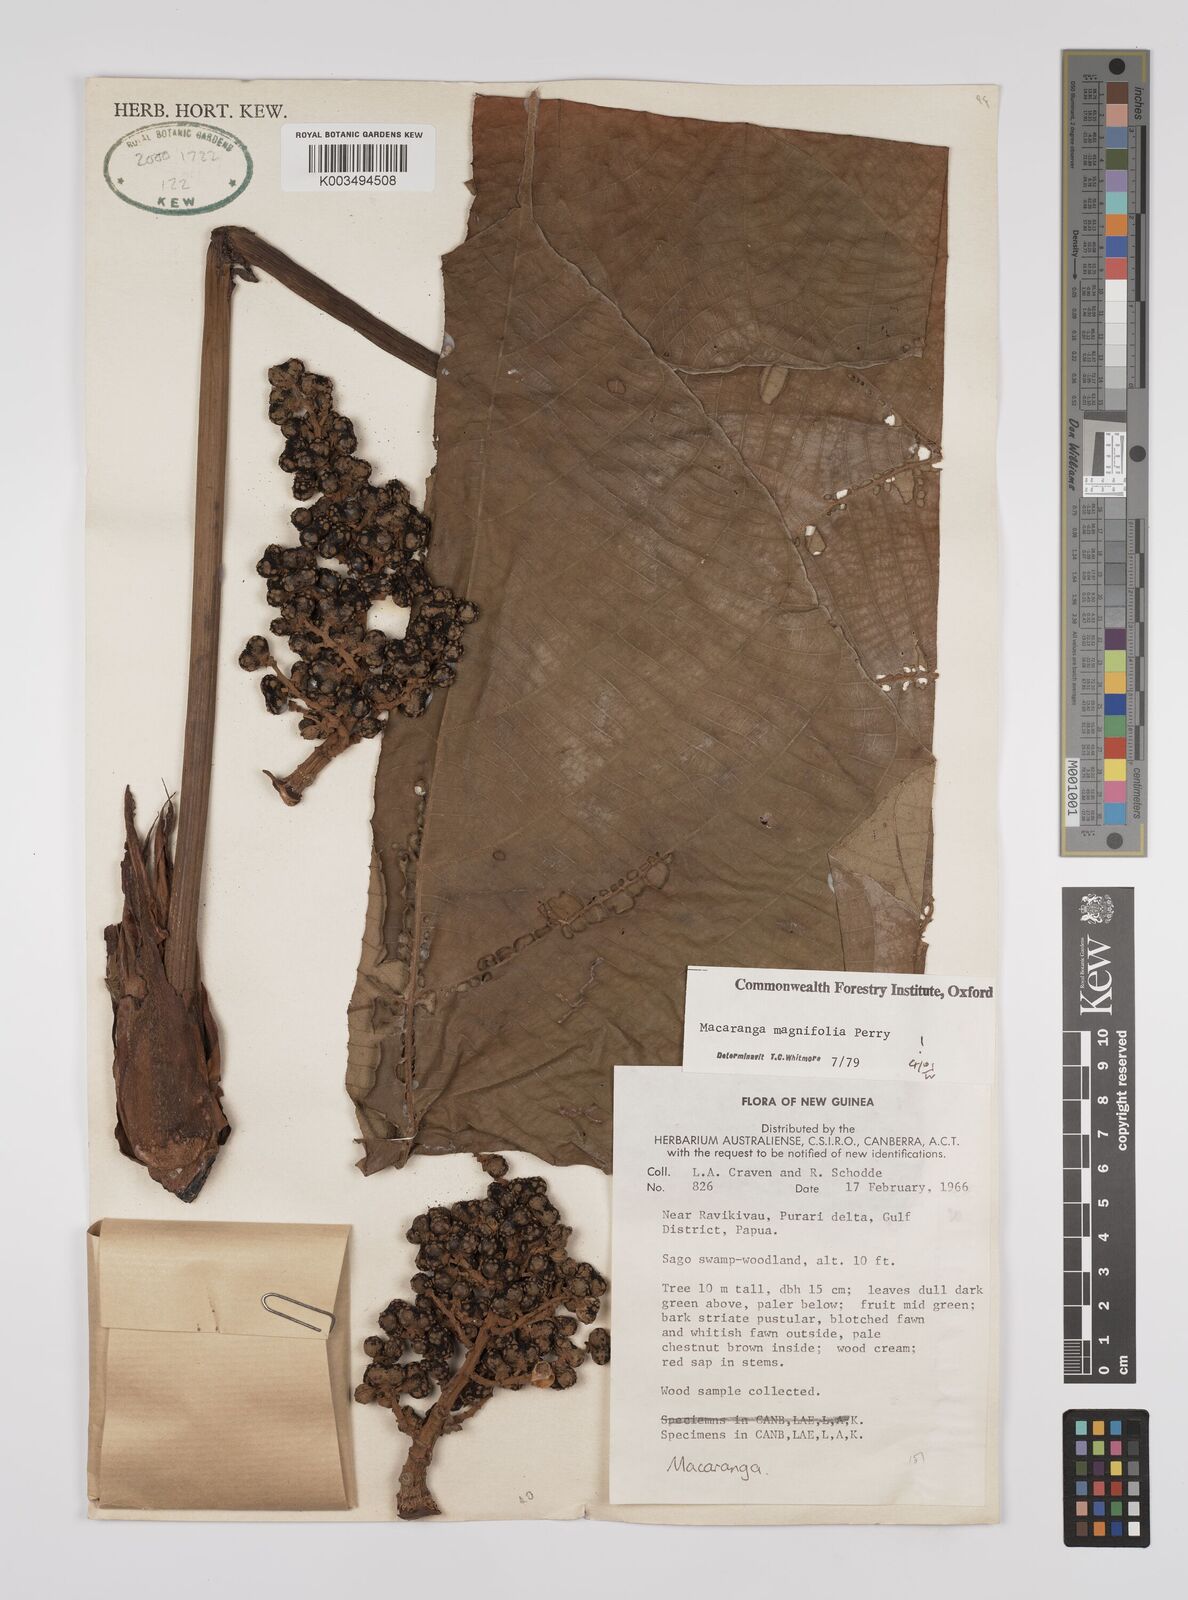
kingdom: Plantae
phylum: Tracheophyta
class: Magnoliopsida
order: Malpighiales
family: Euphorbiaceae
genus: Macaranga
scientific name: Macaranga magnifolia
